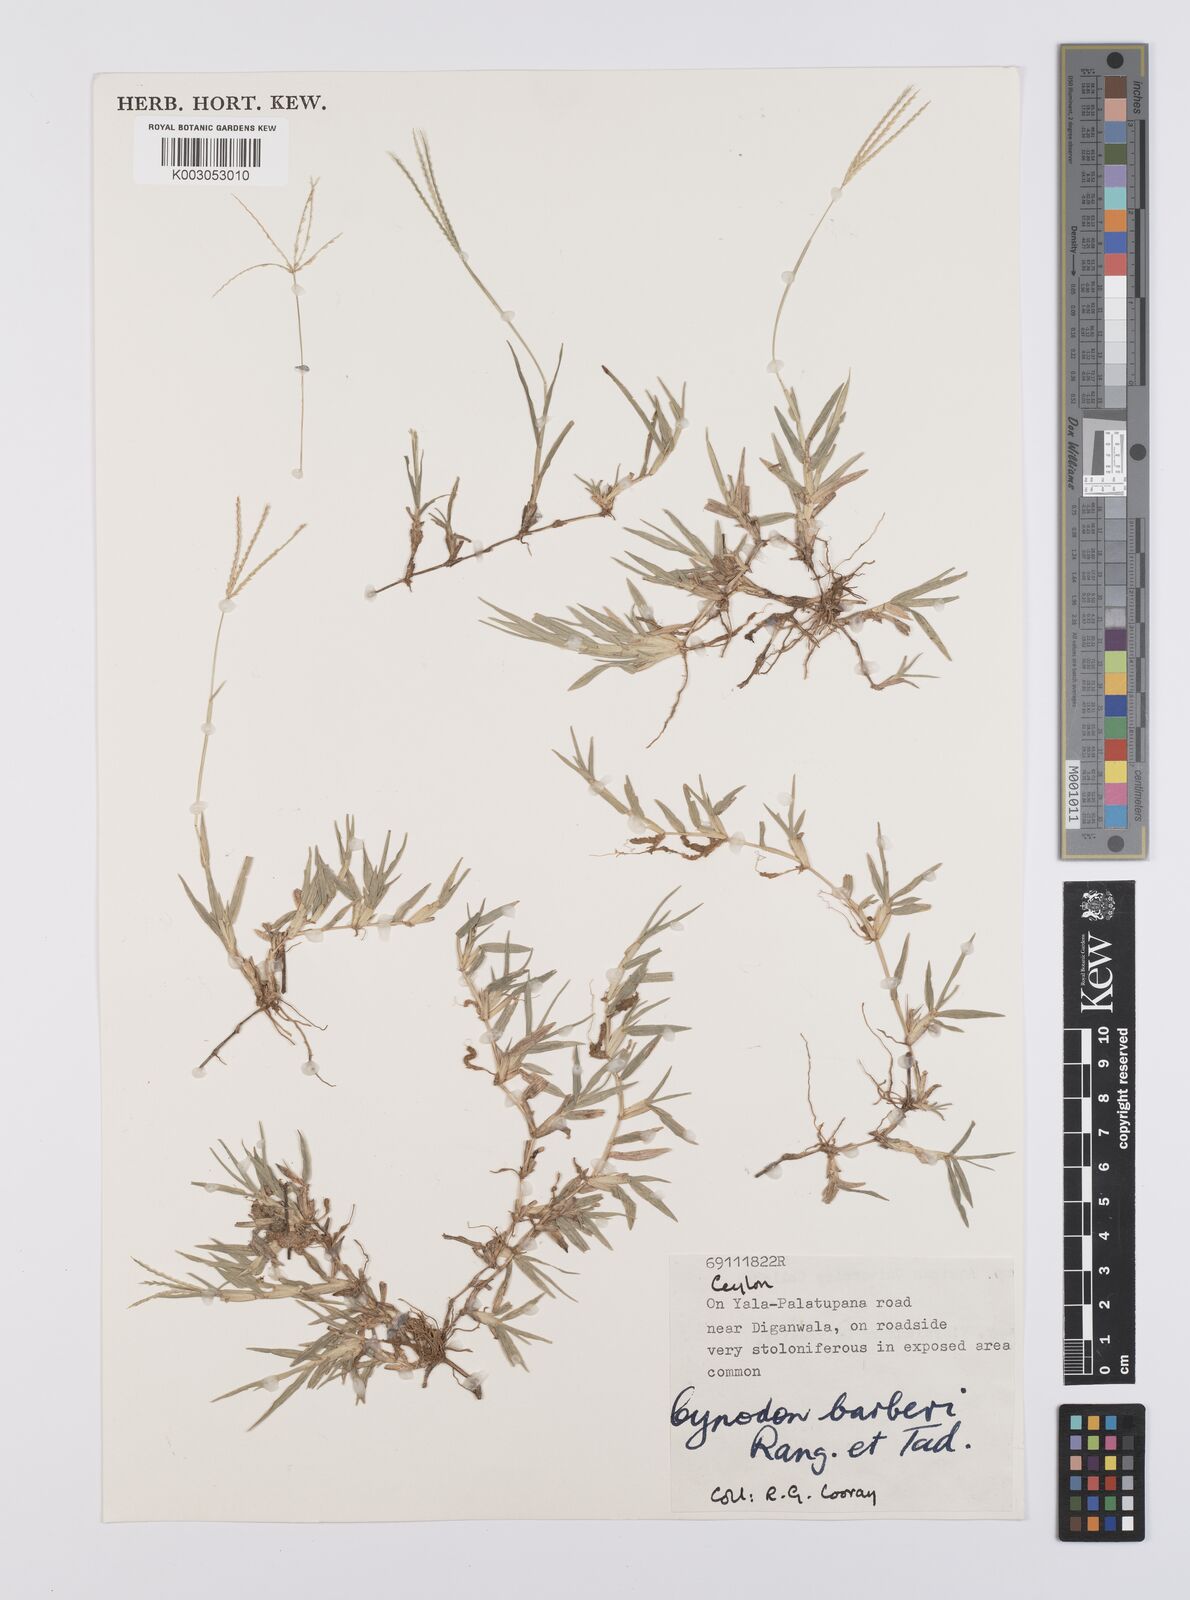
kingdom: Plantae
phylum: Tracheophyta
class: Liliopsida
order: Poales
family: Poaceae
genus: Cynodon
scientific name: Cynodon barberi
